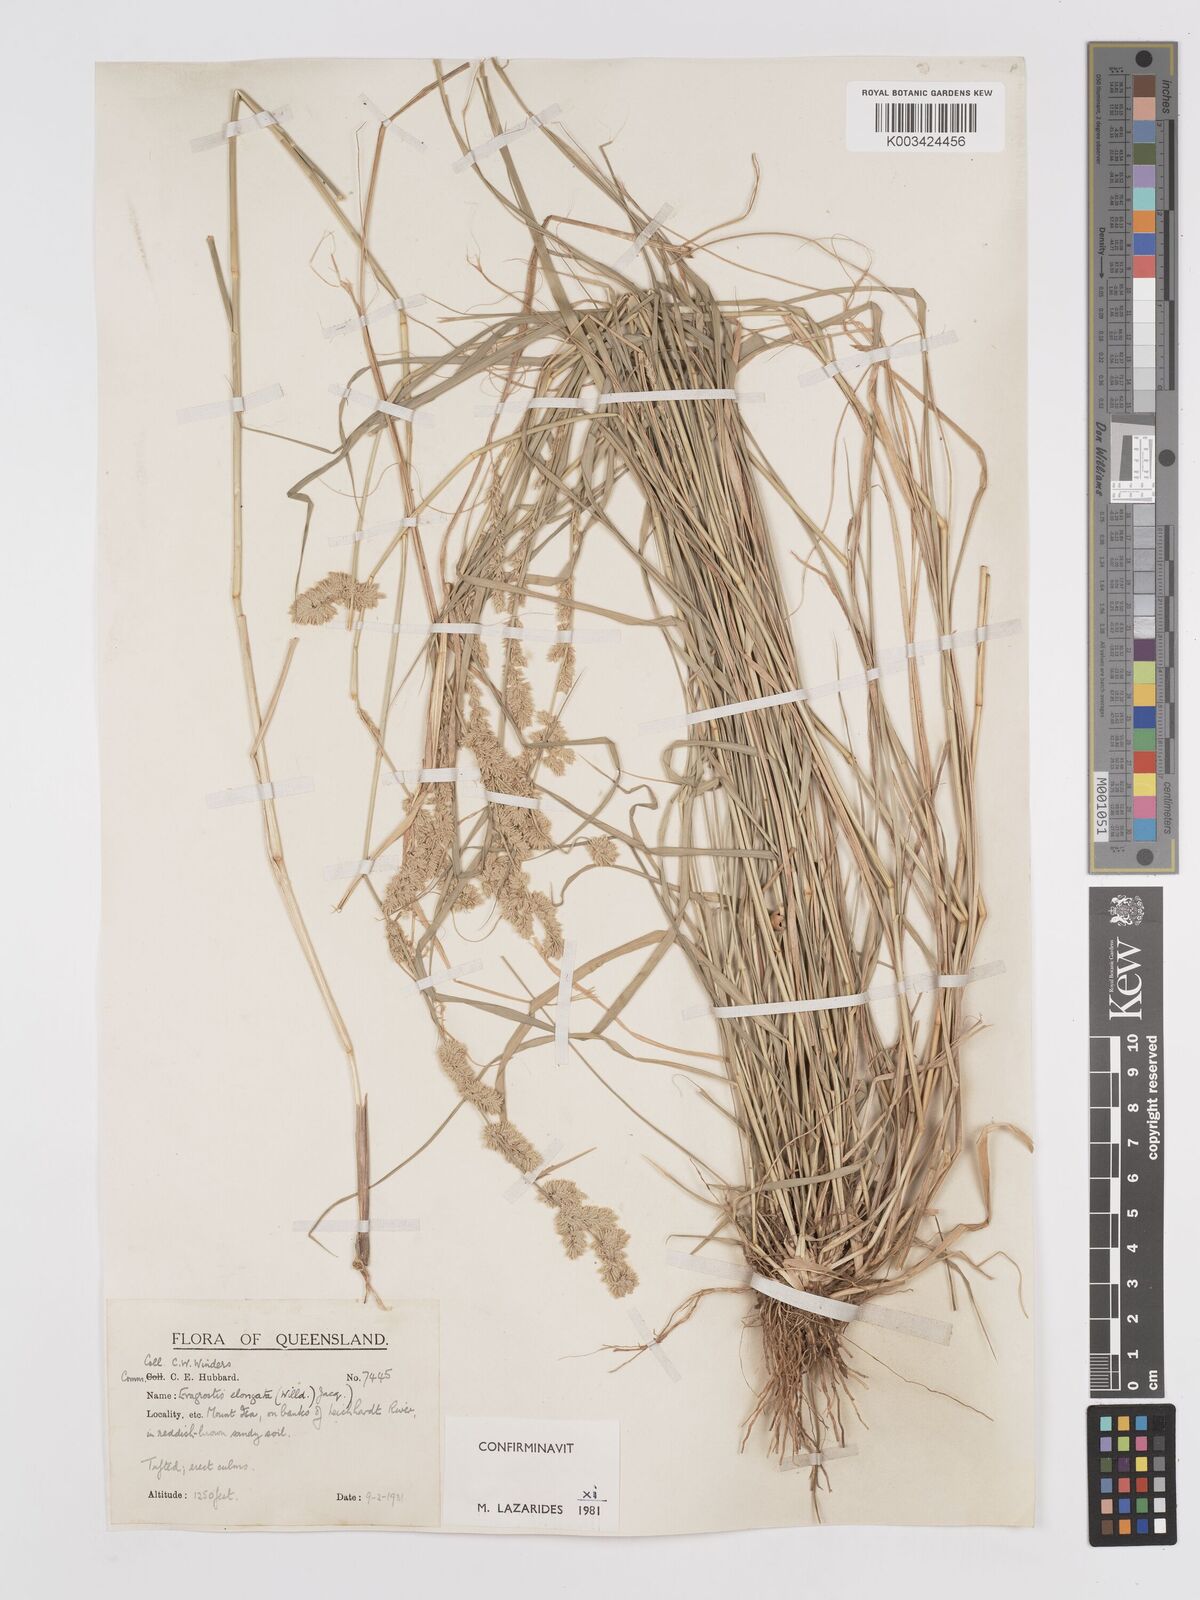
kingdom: Plantae
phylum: Tracheophyta
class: Liliopsida
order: Poales
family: Poaceae
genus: Eragrostis
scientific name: Eragrostis elongata
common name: Long lovegrass
